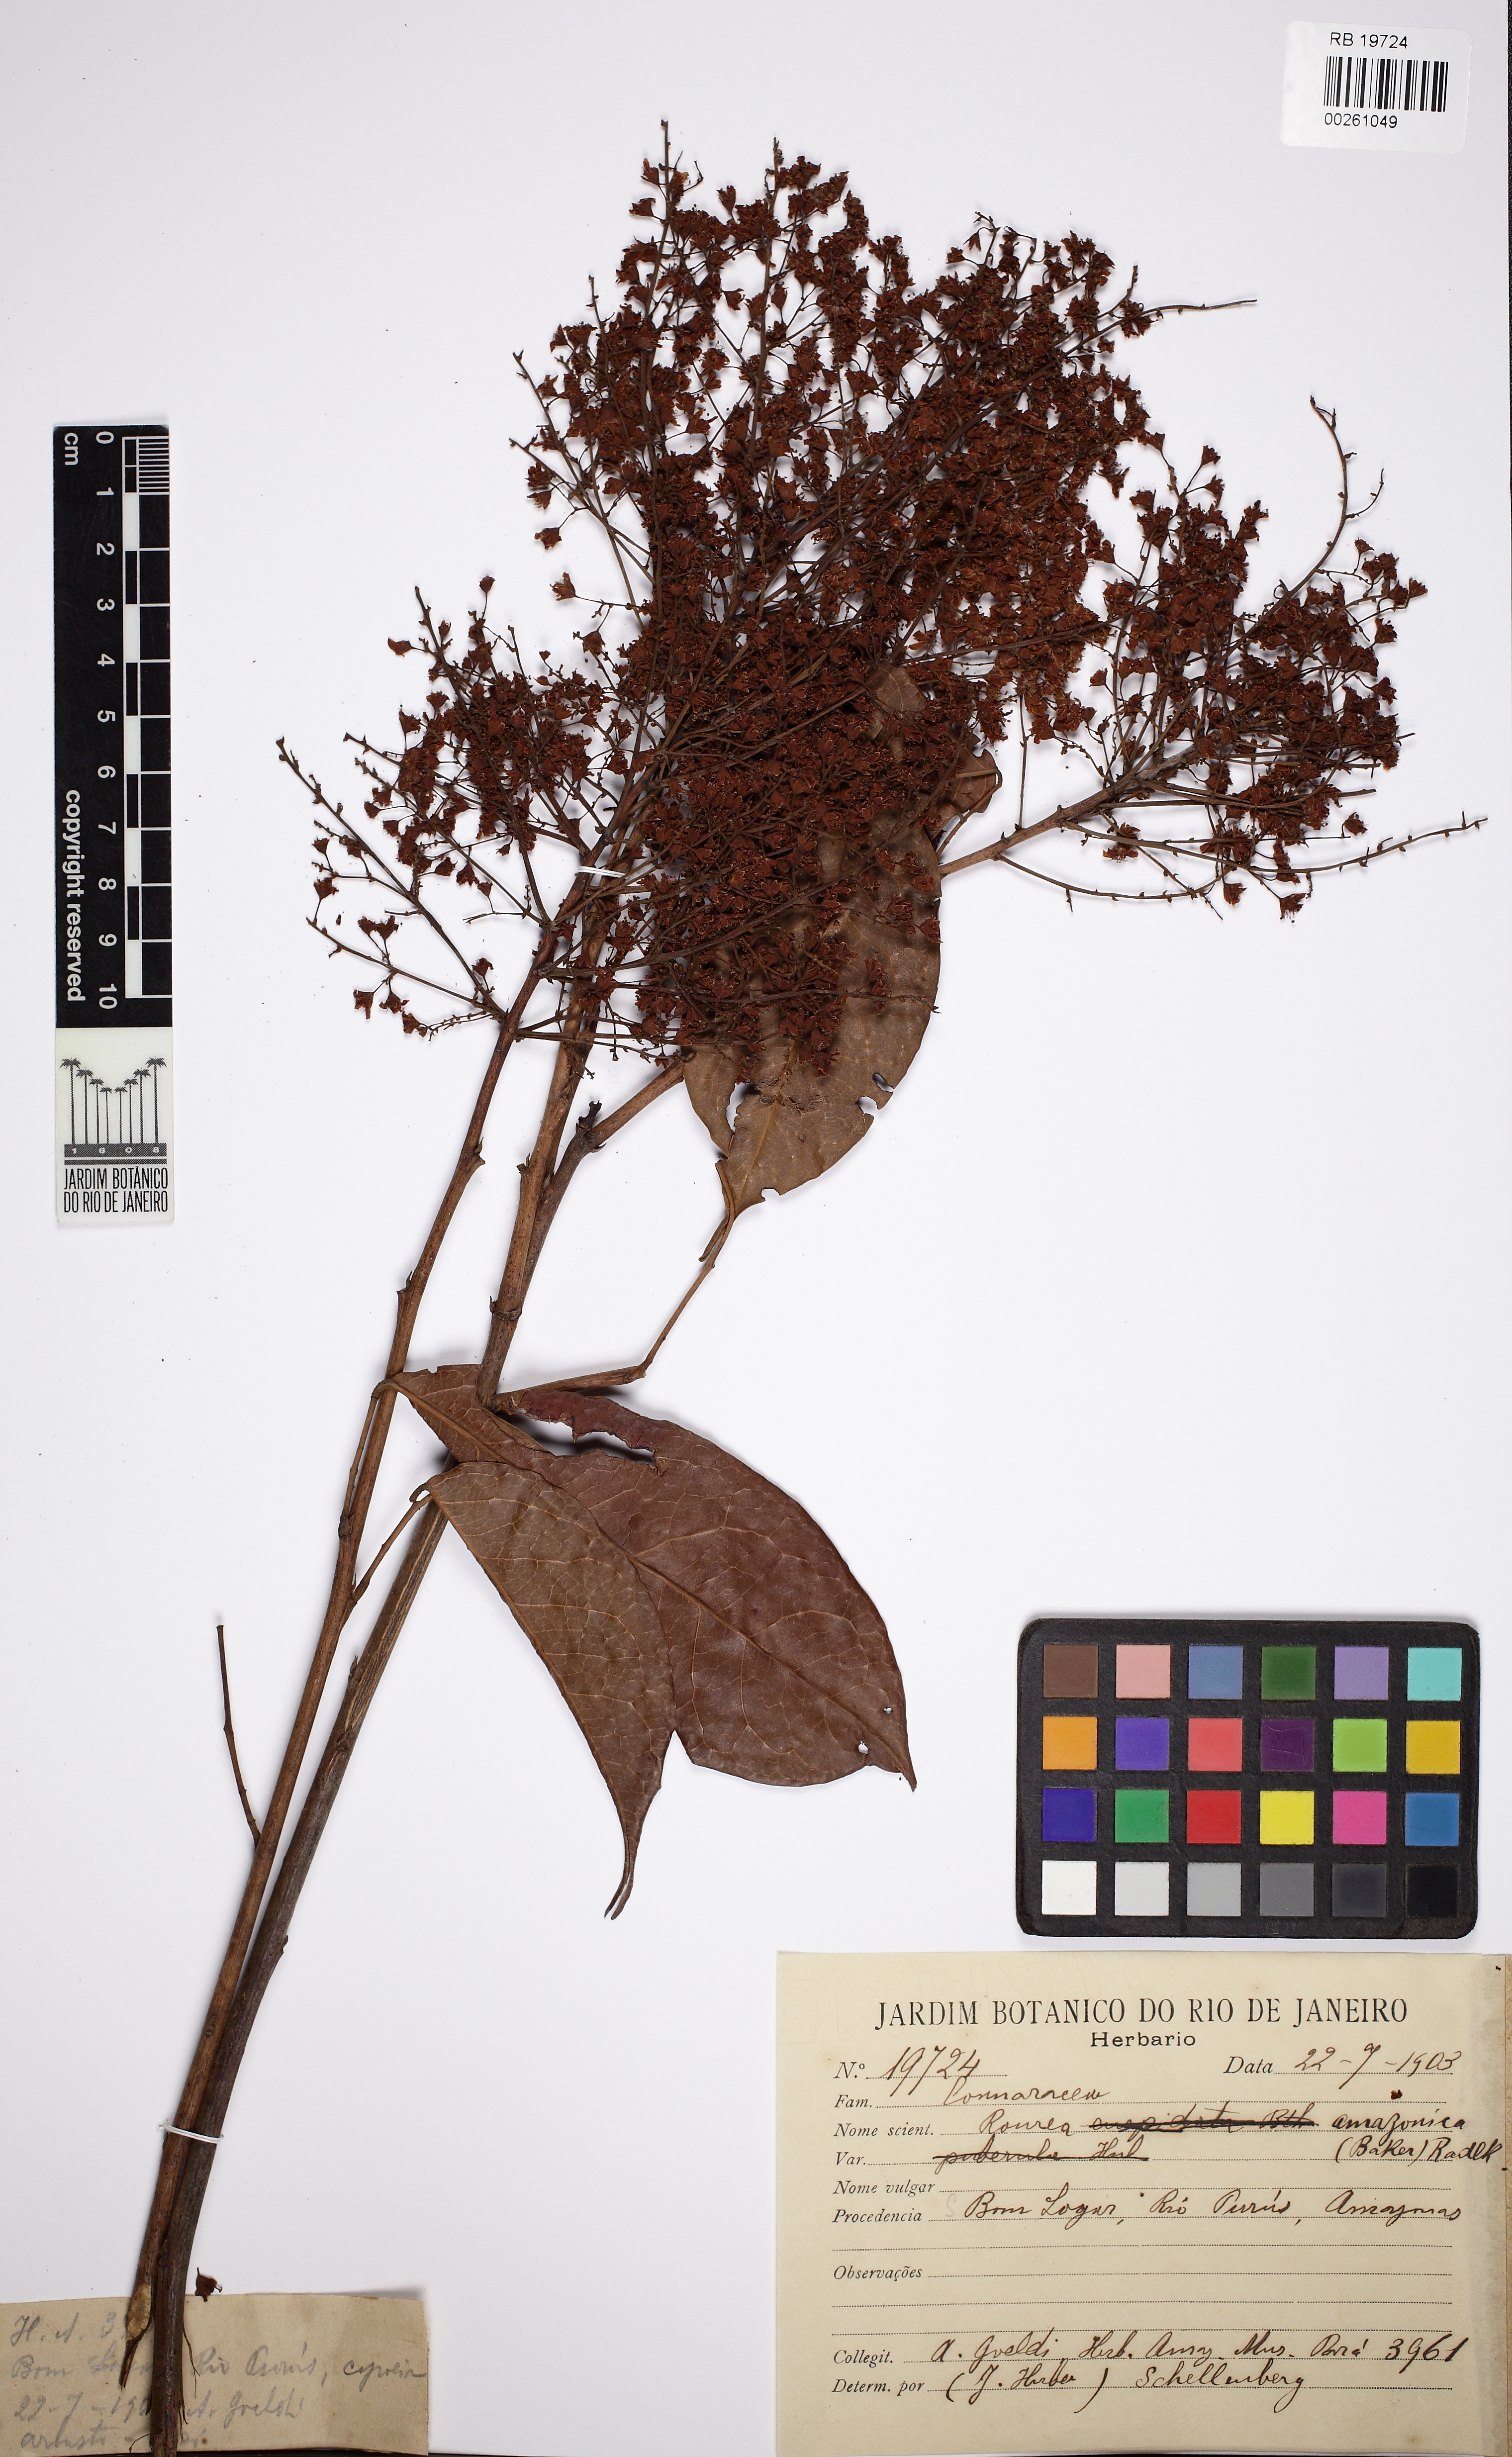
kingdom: Plantae
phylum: Tracheophyta
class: Magnoliopsida
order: Oxalidales
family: Connaraceae
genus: Rourea
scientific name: Rourea amazonica
